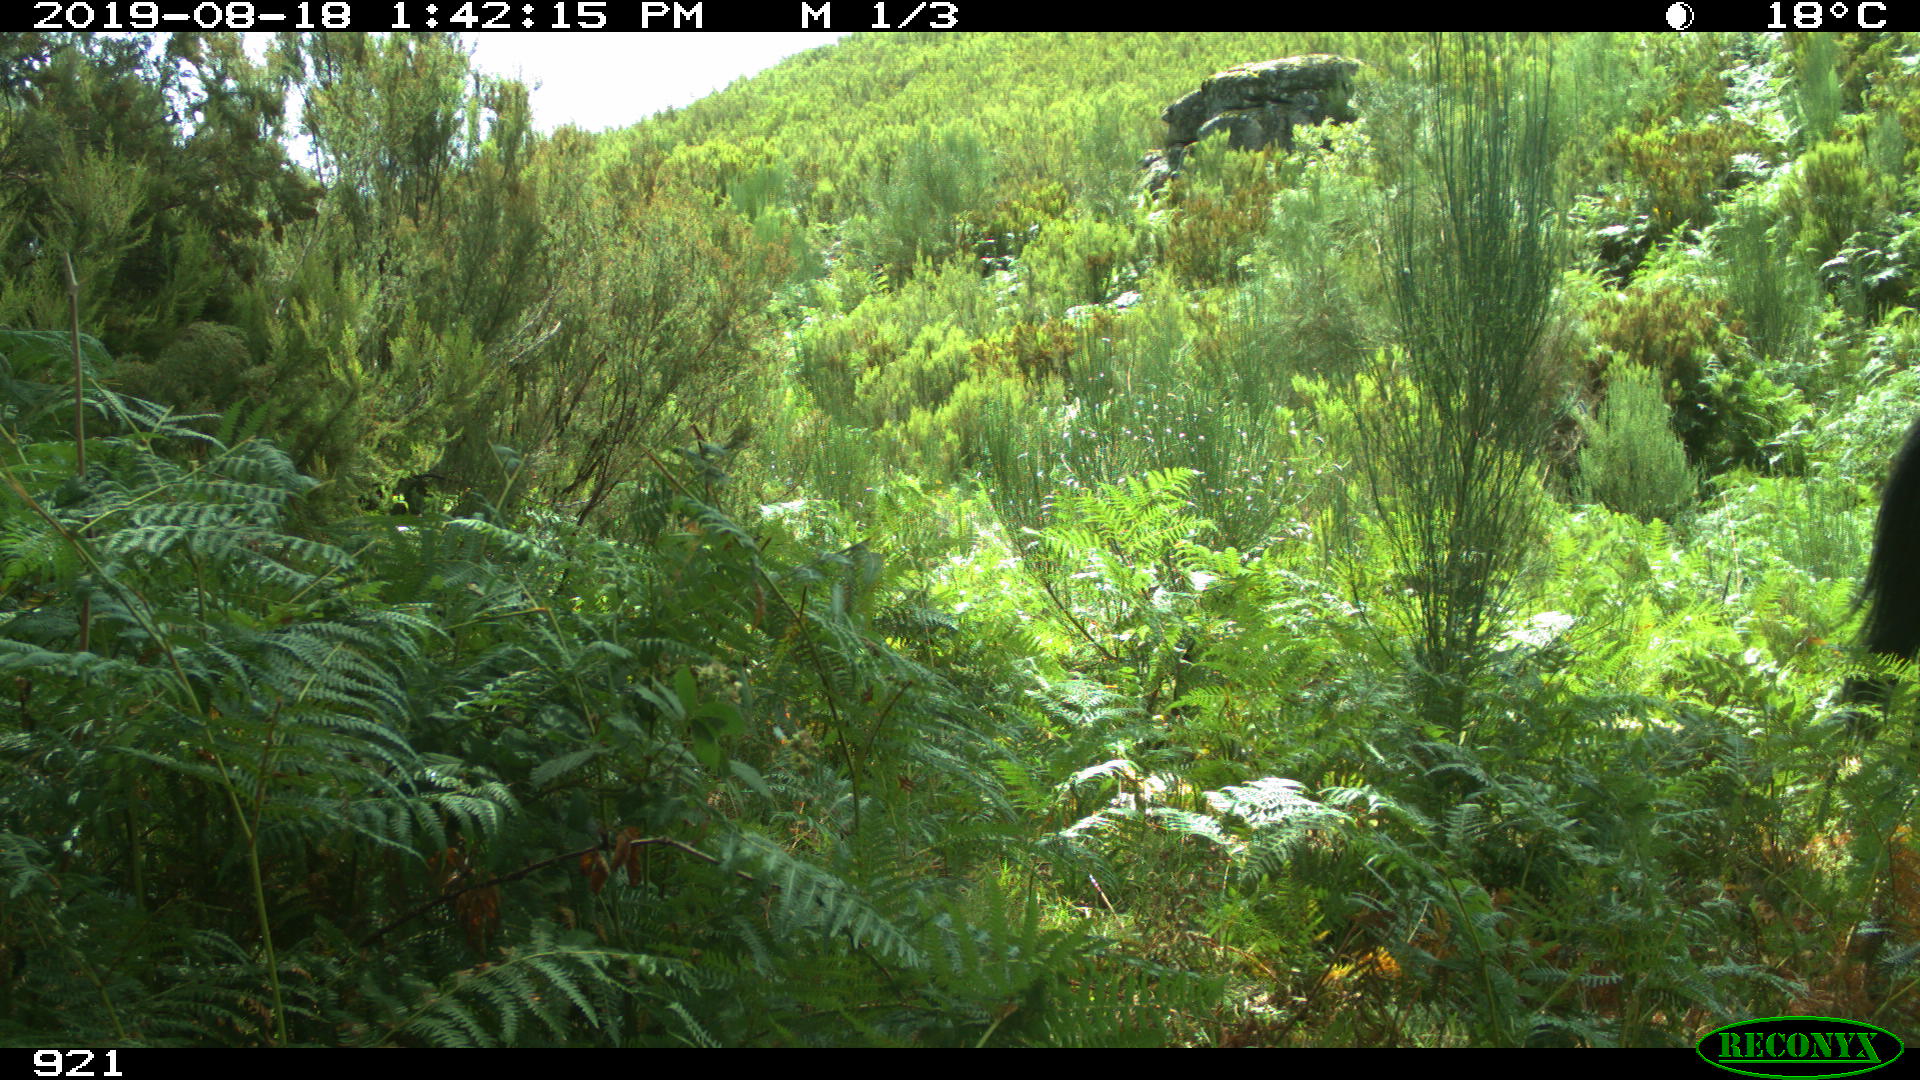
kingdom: Animalia
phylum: Chordata
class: Mammalia
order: Perissodactyla
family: Equidae
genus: Equus
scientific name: Equus caballus
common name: Horse
